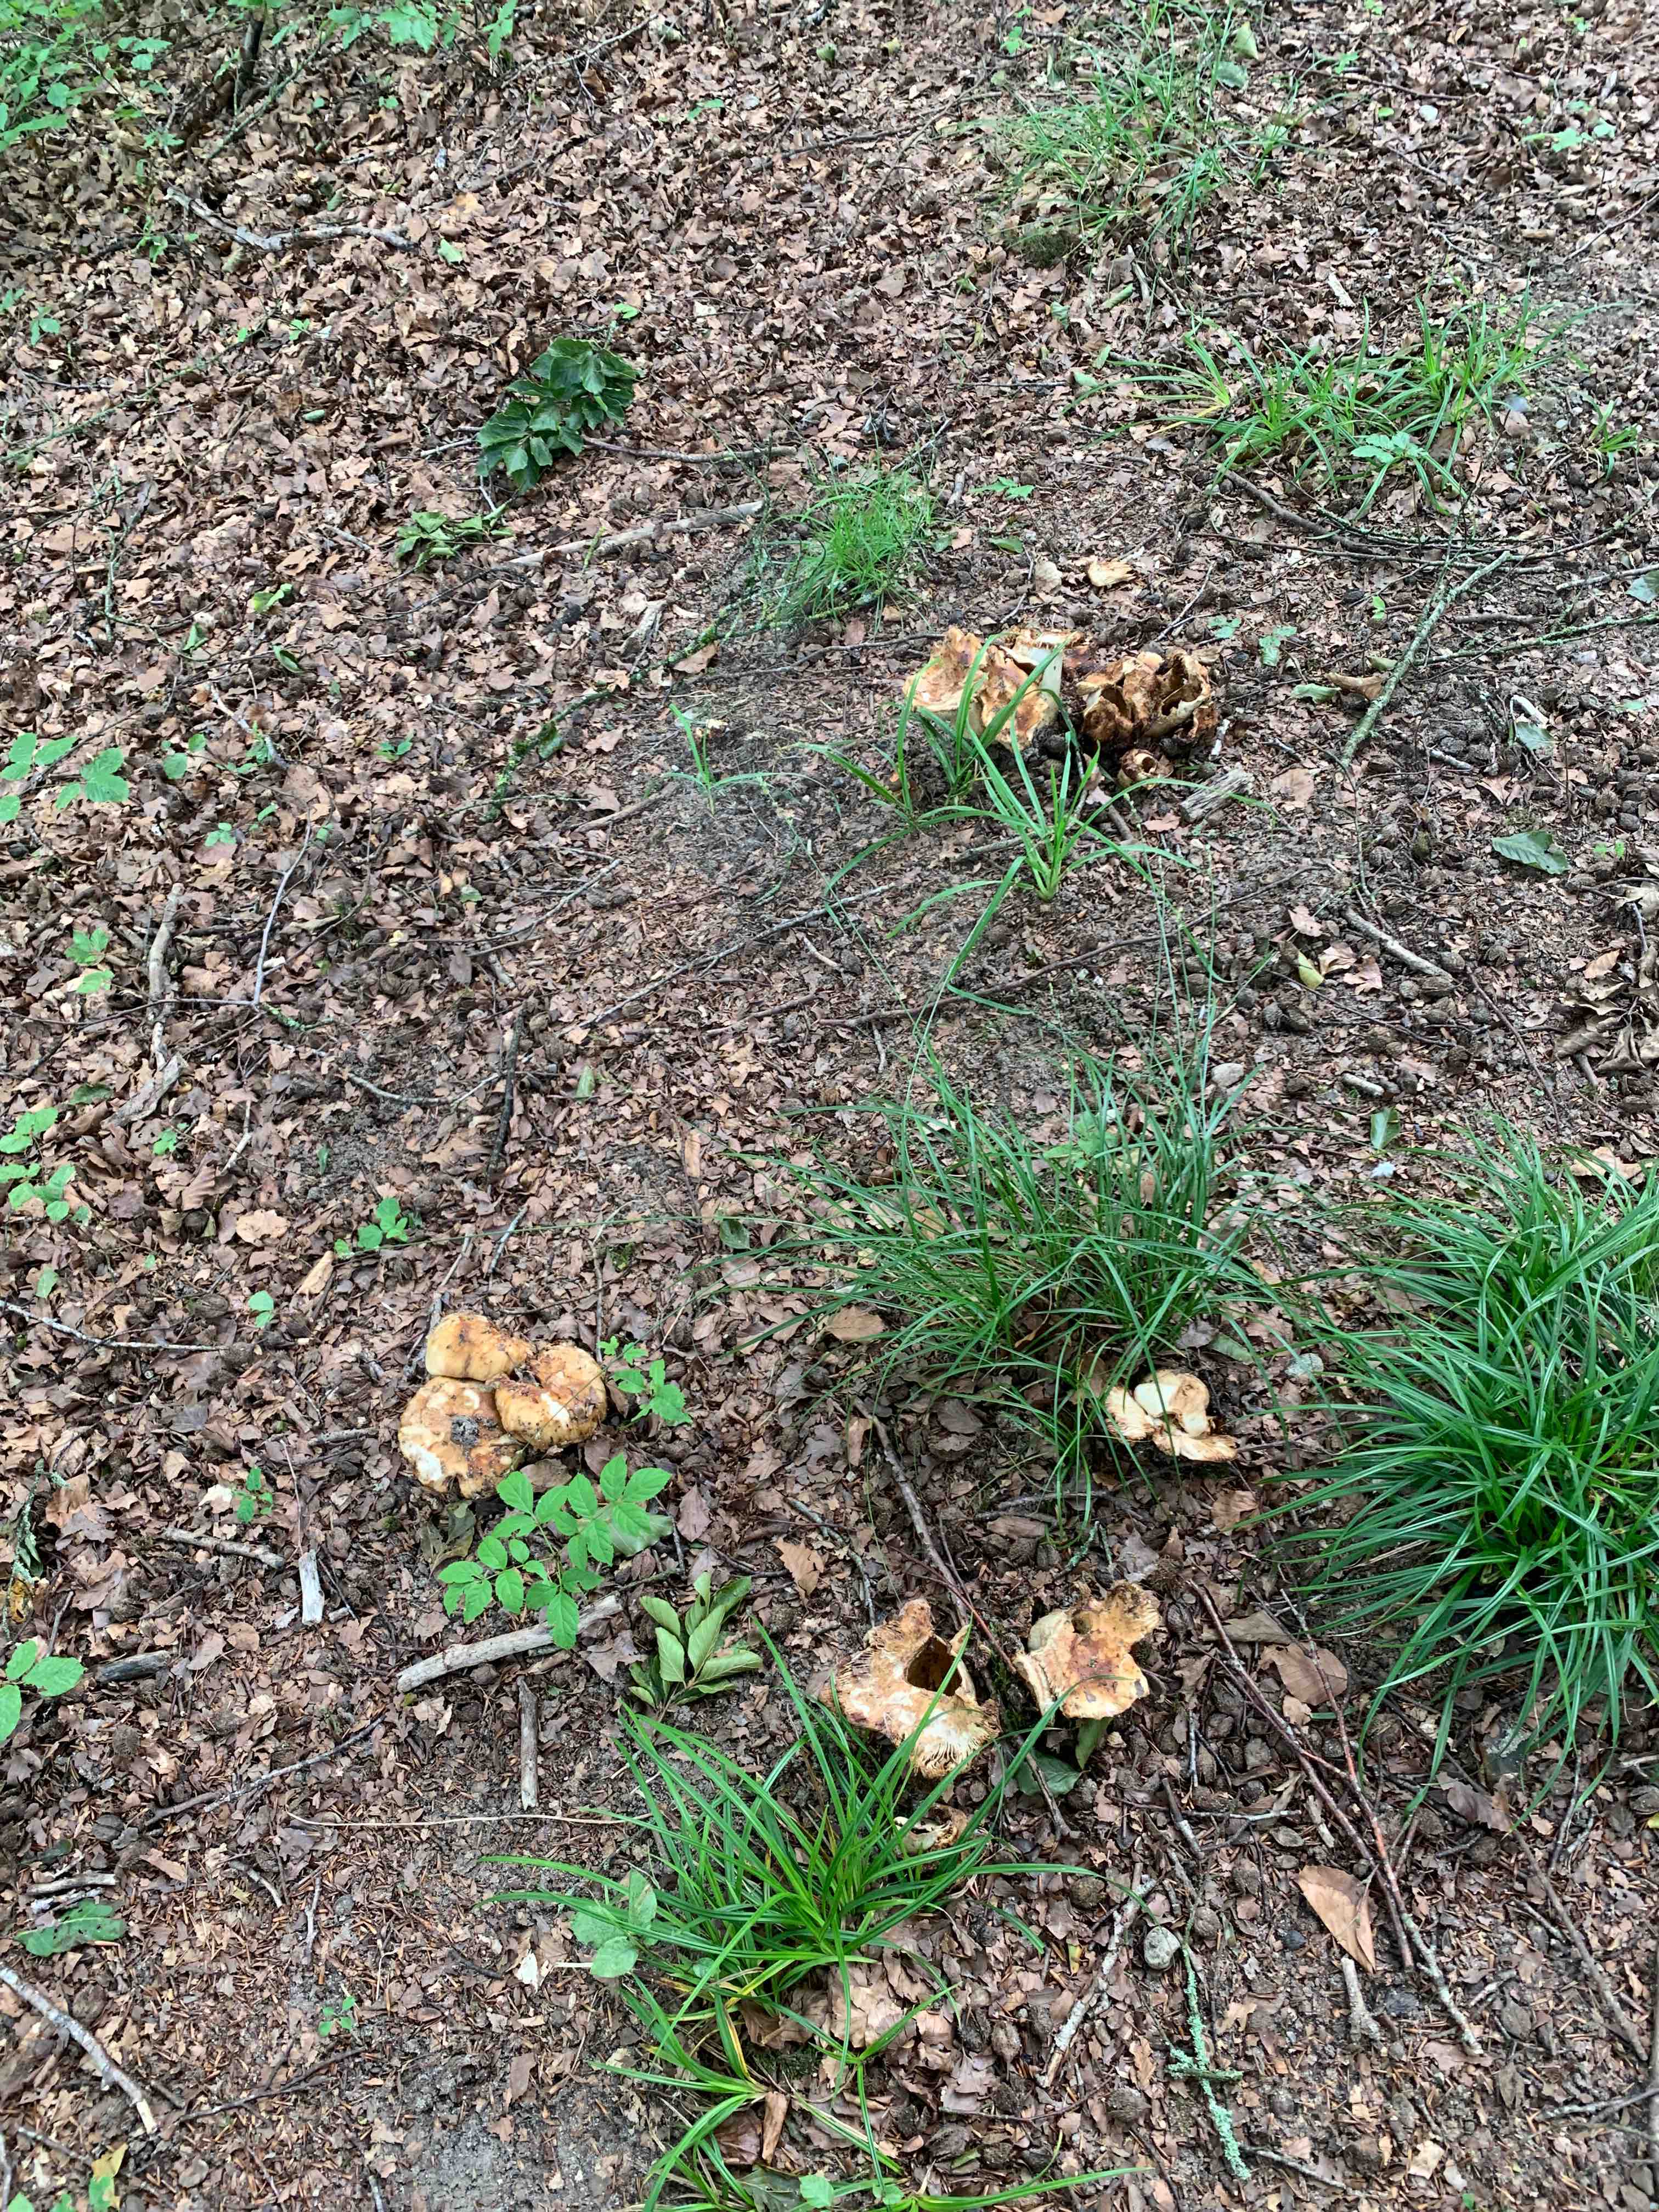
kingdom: Fungi
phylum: Basidiomycota
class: Agaricomycetes
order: Russulales
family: Russulaceae
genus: Russula
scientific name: Russula foetens
